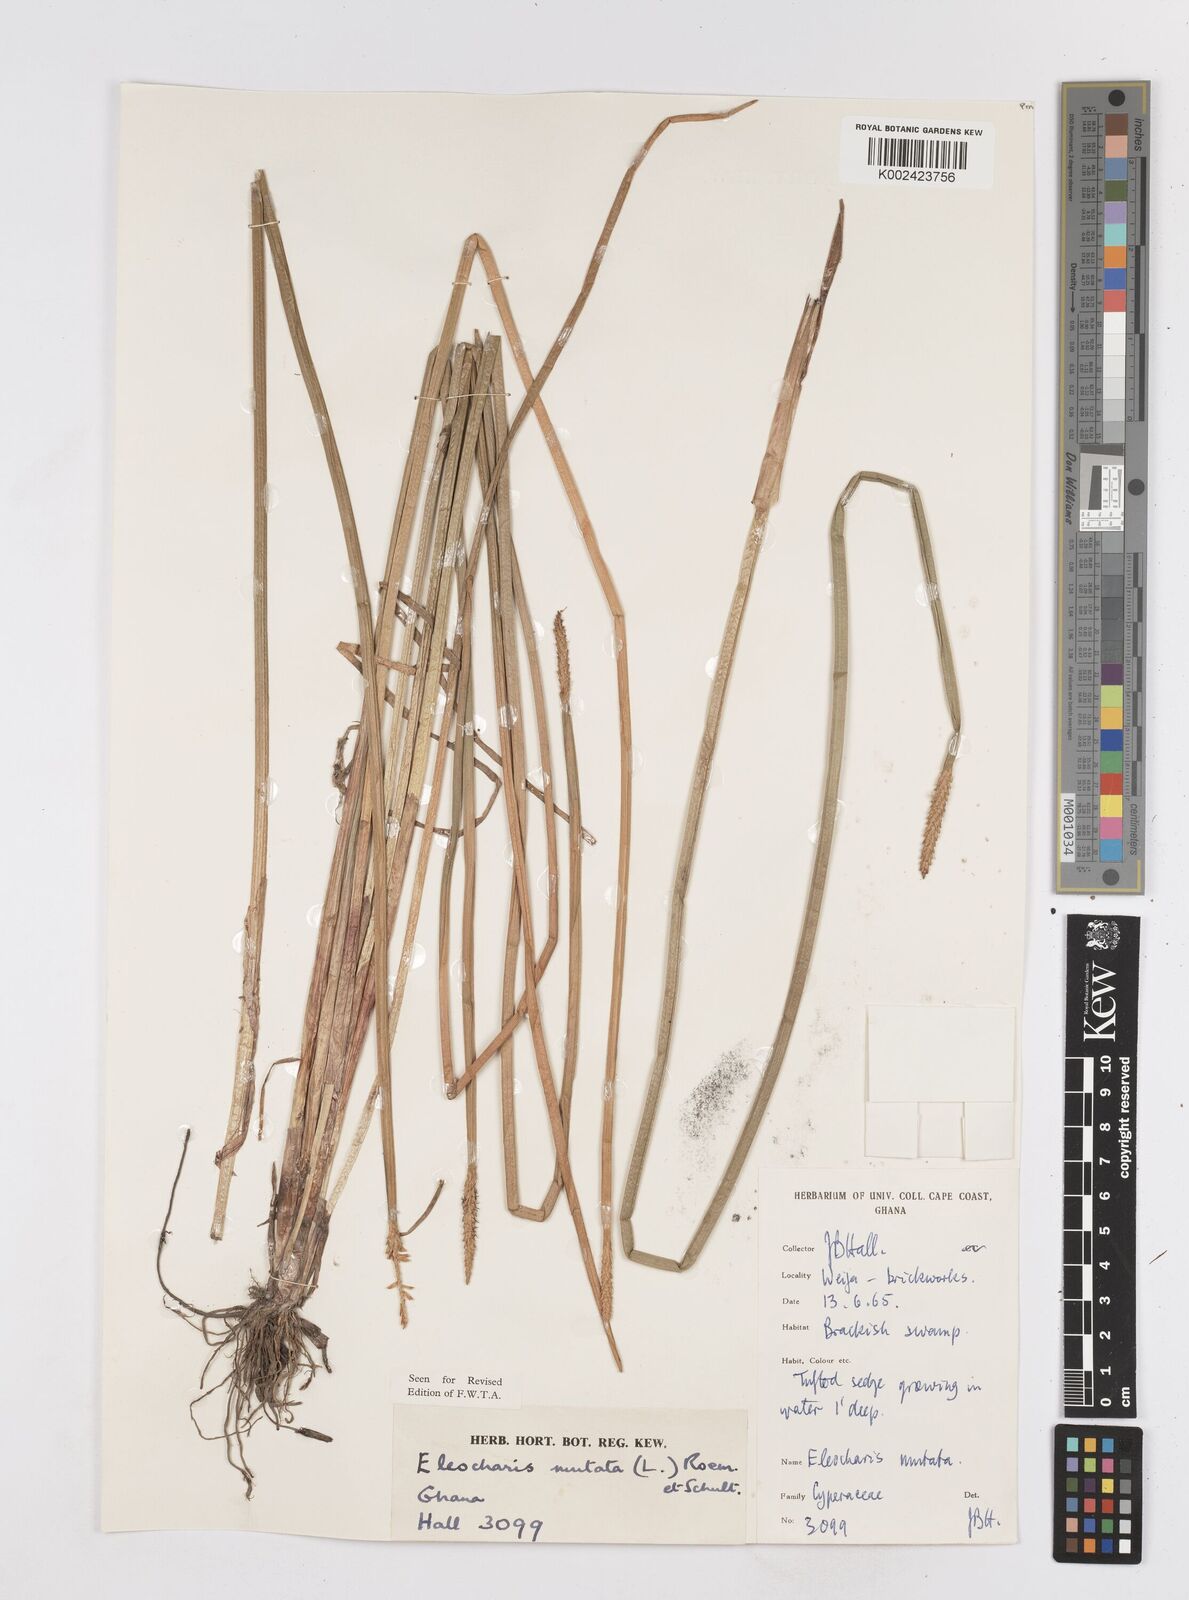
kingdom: Plantae
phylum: Tracheophyta
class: Liliopsida
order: Poales
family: Cyperaceae
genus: Eleocharis
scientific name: Eleocharis mutata
